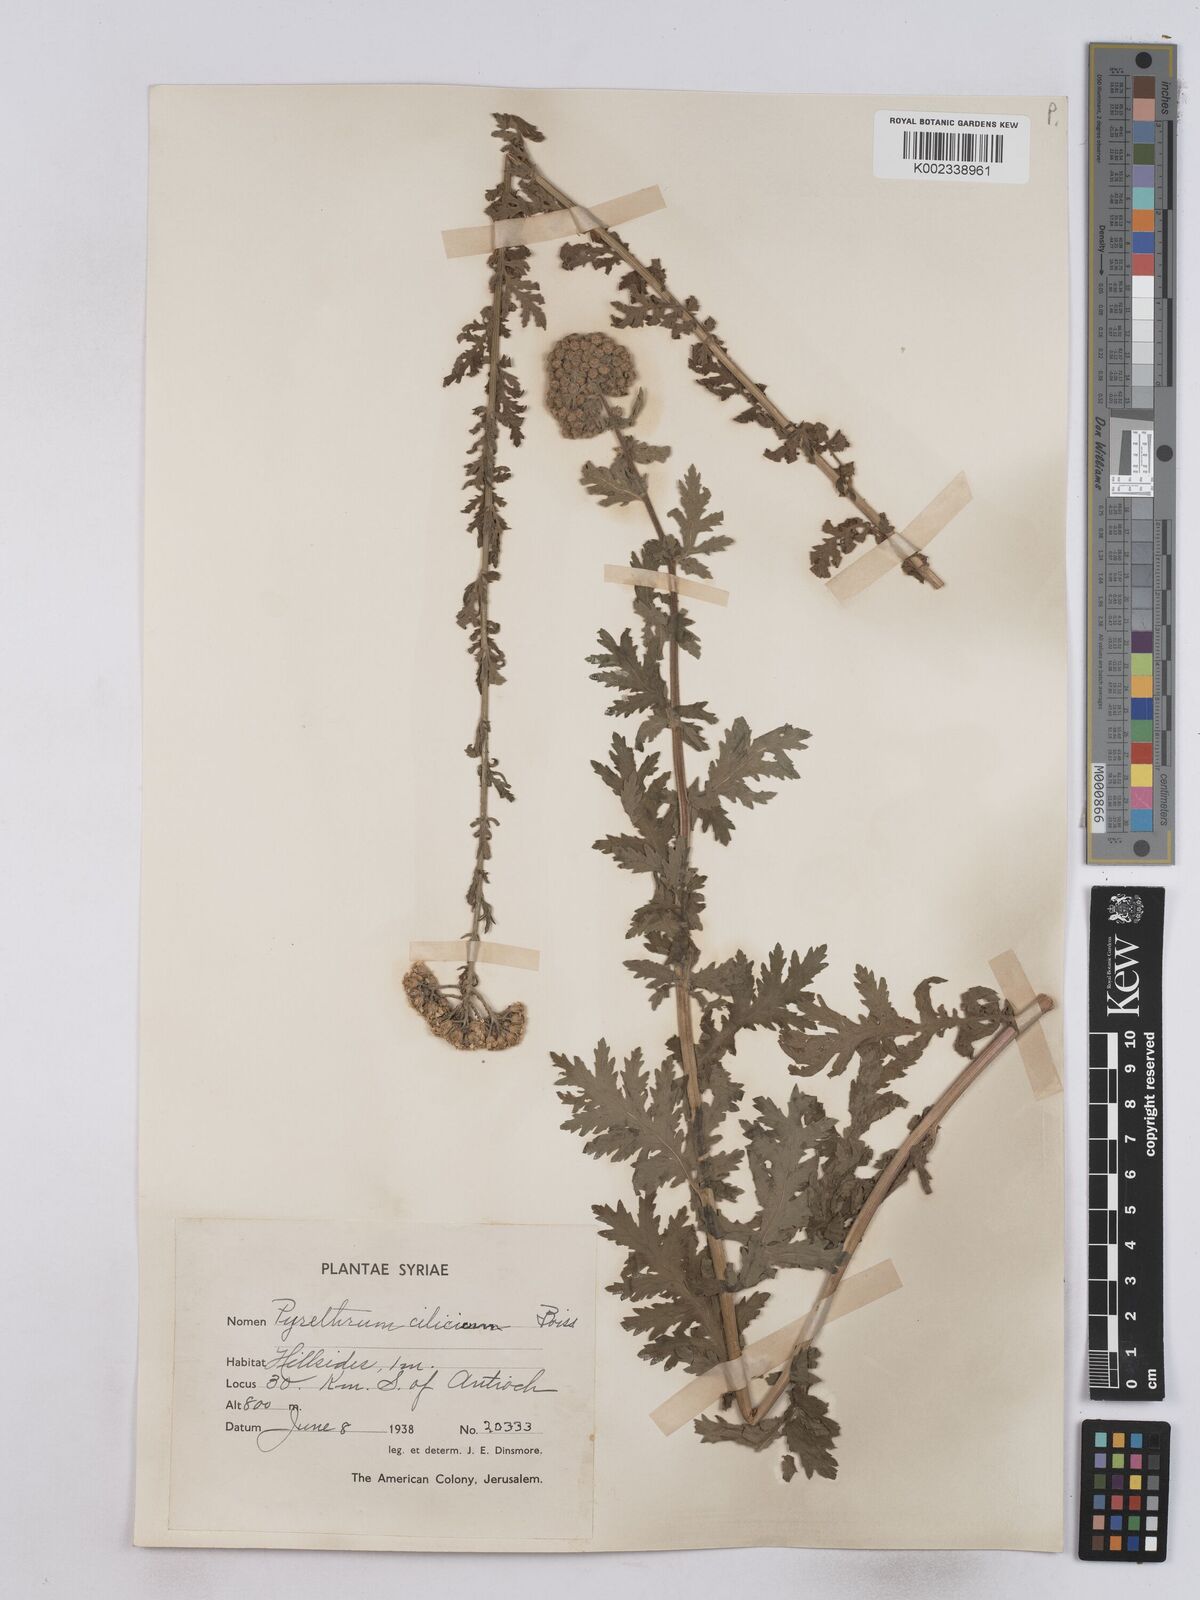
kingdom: Plantae
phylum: Tracheophyta
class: Magnoliopsida
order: Asterales
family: Asteraceae
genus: Tanacetum
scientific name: Tanacetum cilicicum
